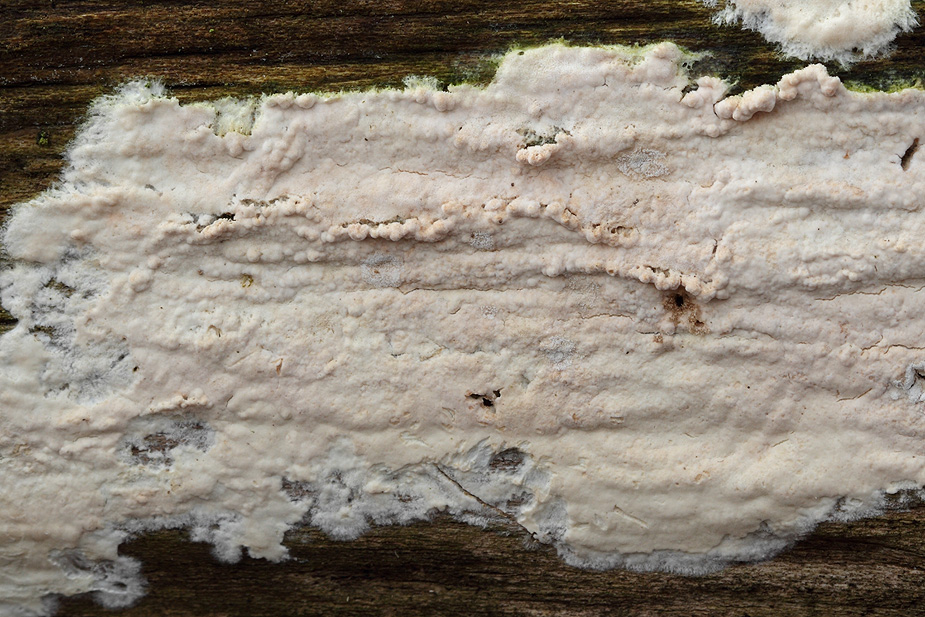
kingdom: Fungi
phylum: Basidiomycota
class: Agaricomycetes
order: Agaricales
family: Cyphellaceae
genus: Granulobasidium
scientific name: Granulobasidium vellereum
